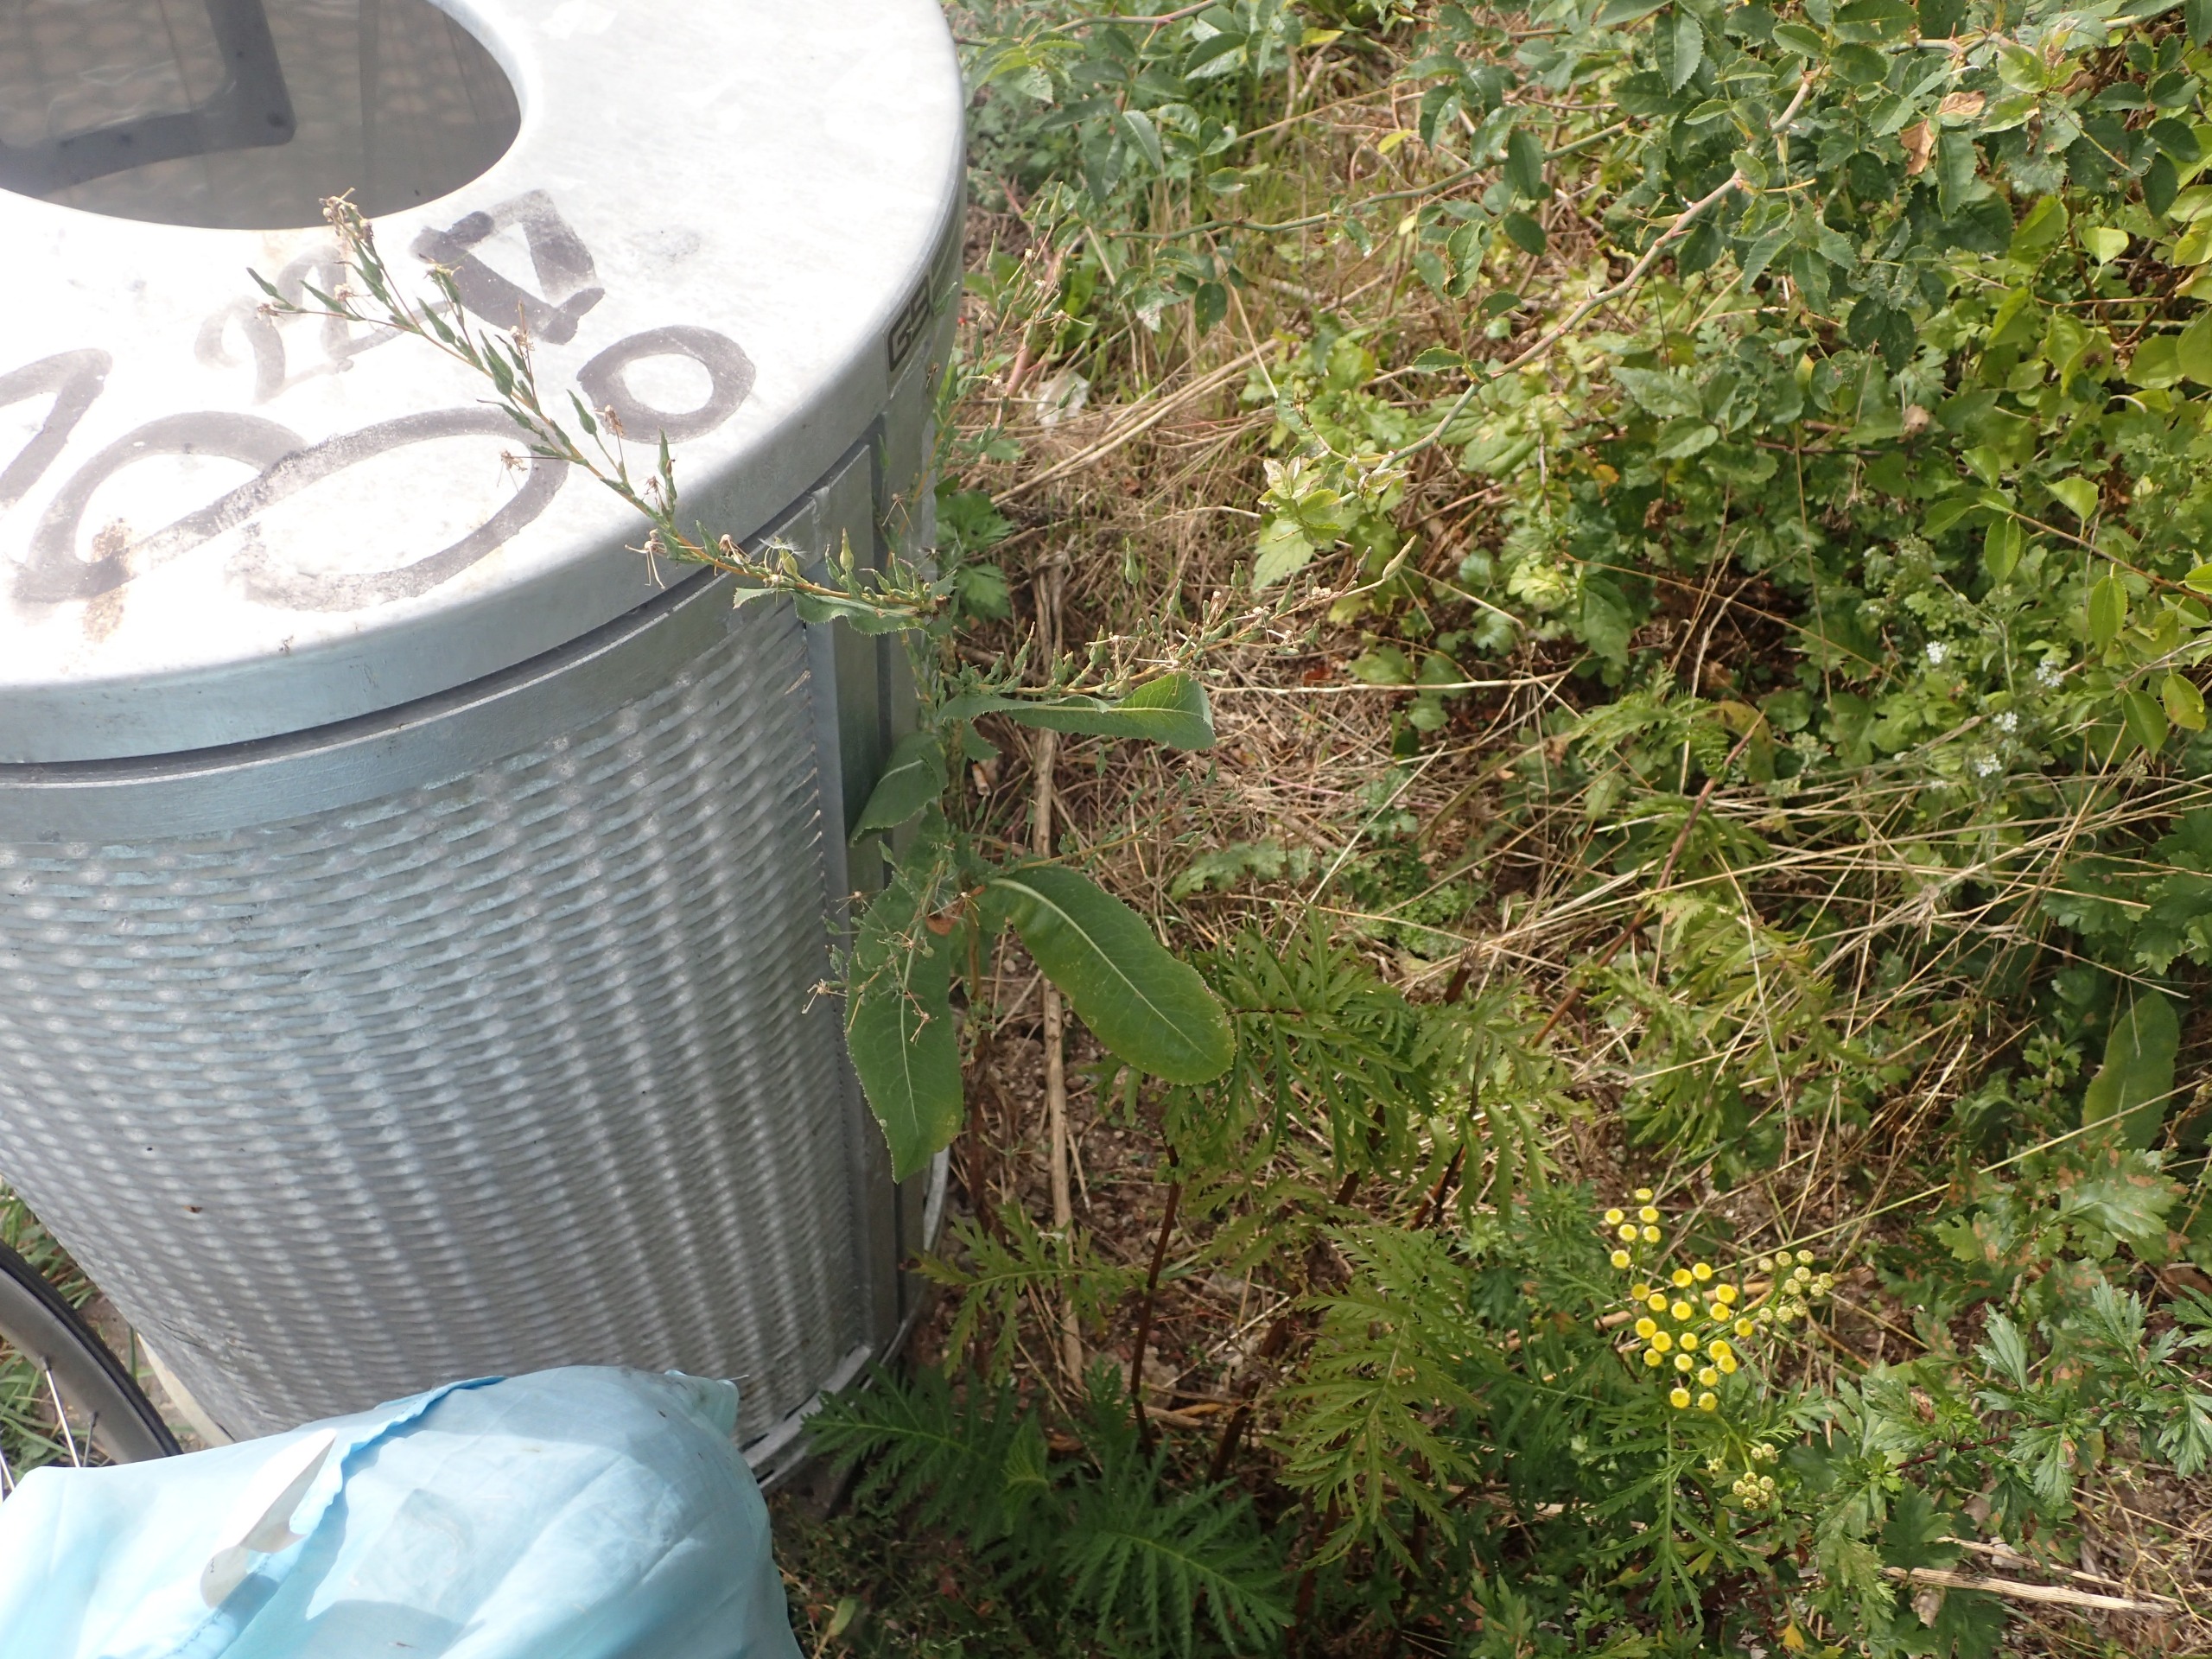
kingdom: Plantae
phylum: Tracheophyta
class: Magnoliopsida
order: Asterales
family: Asteraceae
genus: Lactuca
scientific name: Lactuca serriola
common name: Tornet salat
